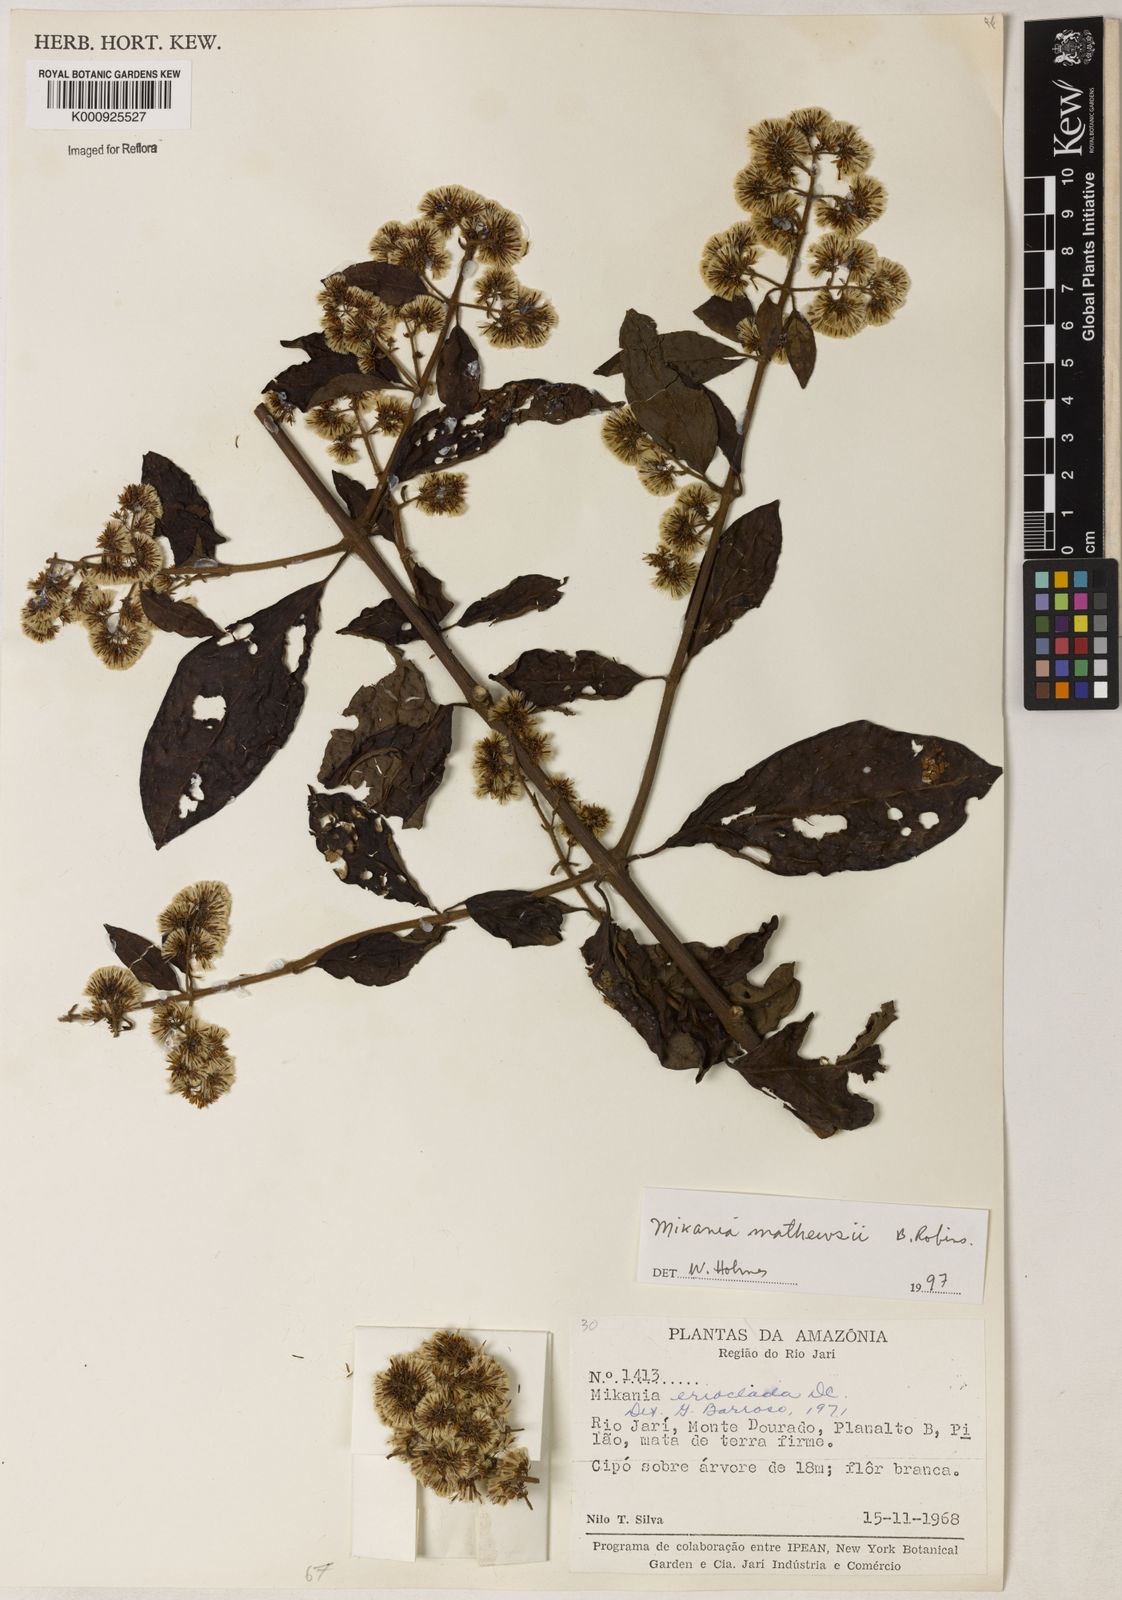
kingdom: Plantae
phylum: Tracheophyta
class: Magnoliopsida
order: Asterales
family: Asteraceae
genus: Mikania
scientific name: Mikania erioclada
